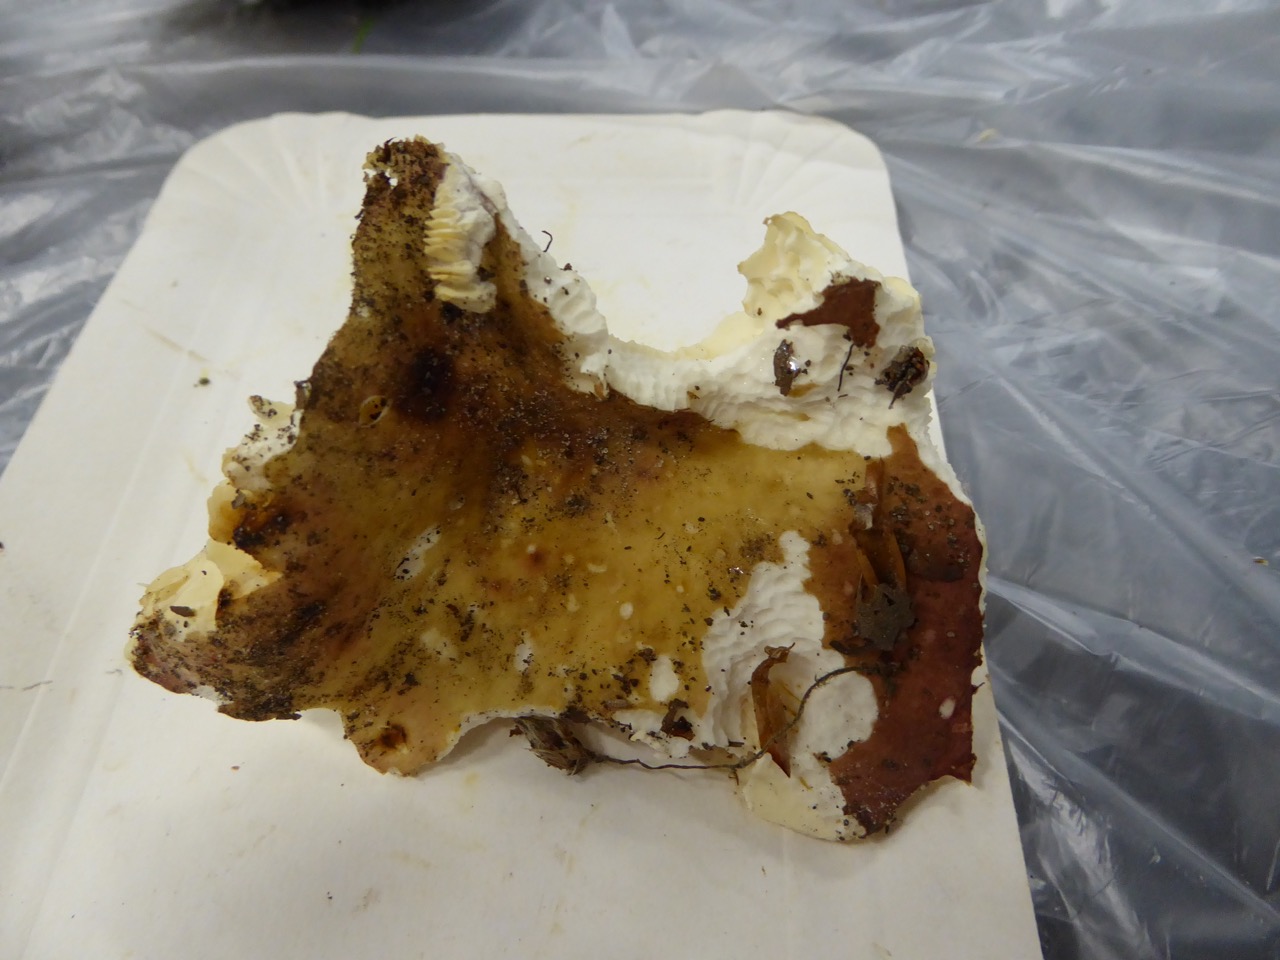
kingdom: Fungi
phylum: Basidiomycota
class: Agaricomycetes
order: Russulales
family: Russulaceae
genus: Russula
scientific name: Russula curtipes
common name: kortstokket skørhat
